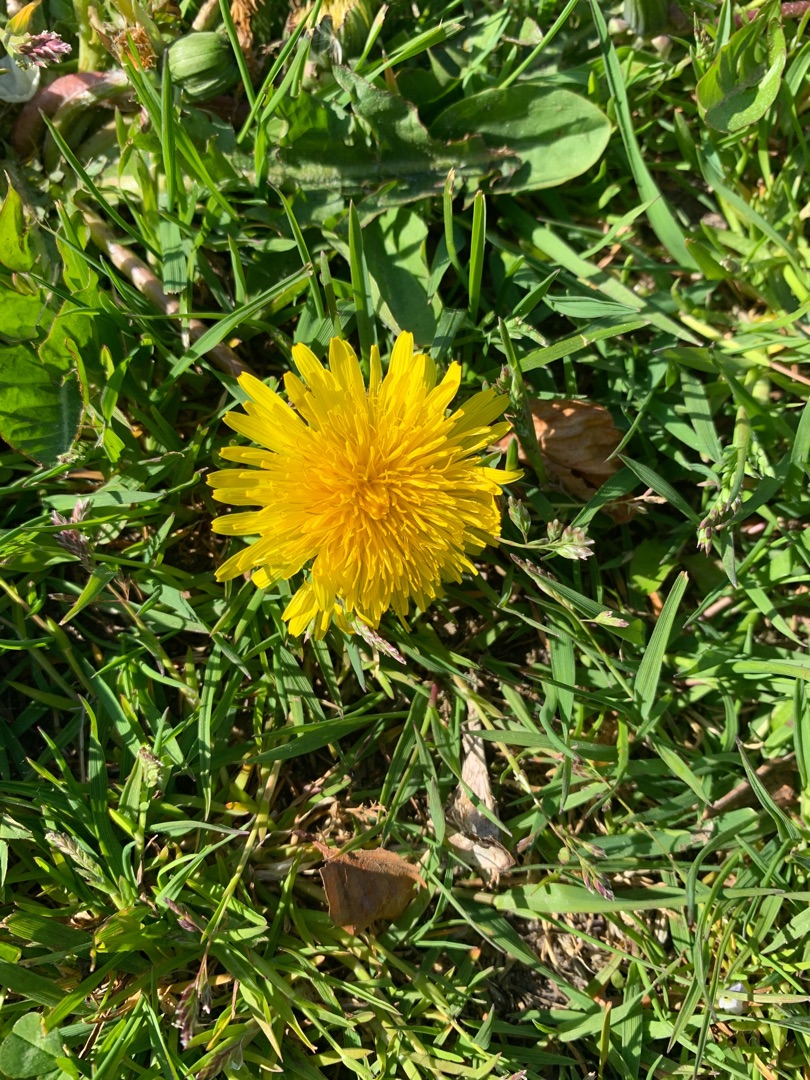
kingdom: Plantae
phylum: Tracheophyta
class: Magnoliopsida
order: Asterales
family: Asteraceae
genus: Taraxacum
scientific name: Taraxacum
